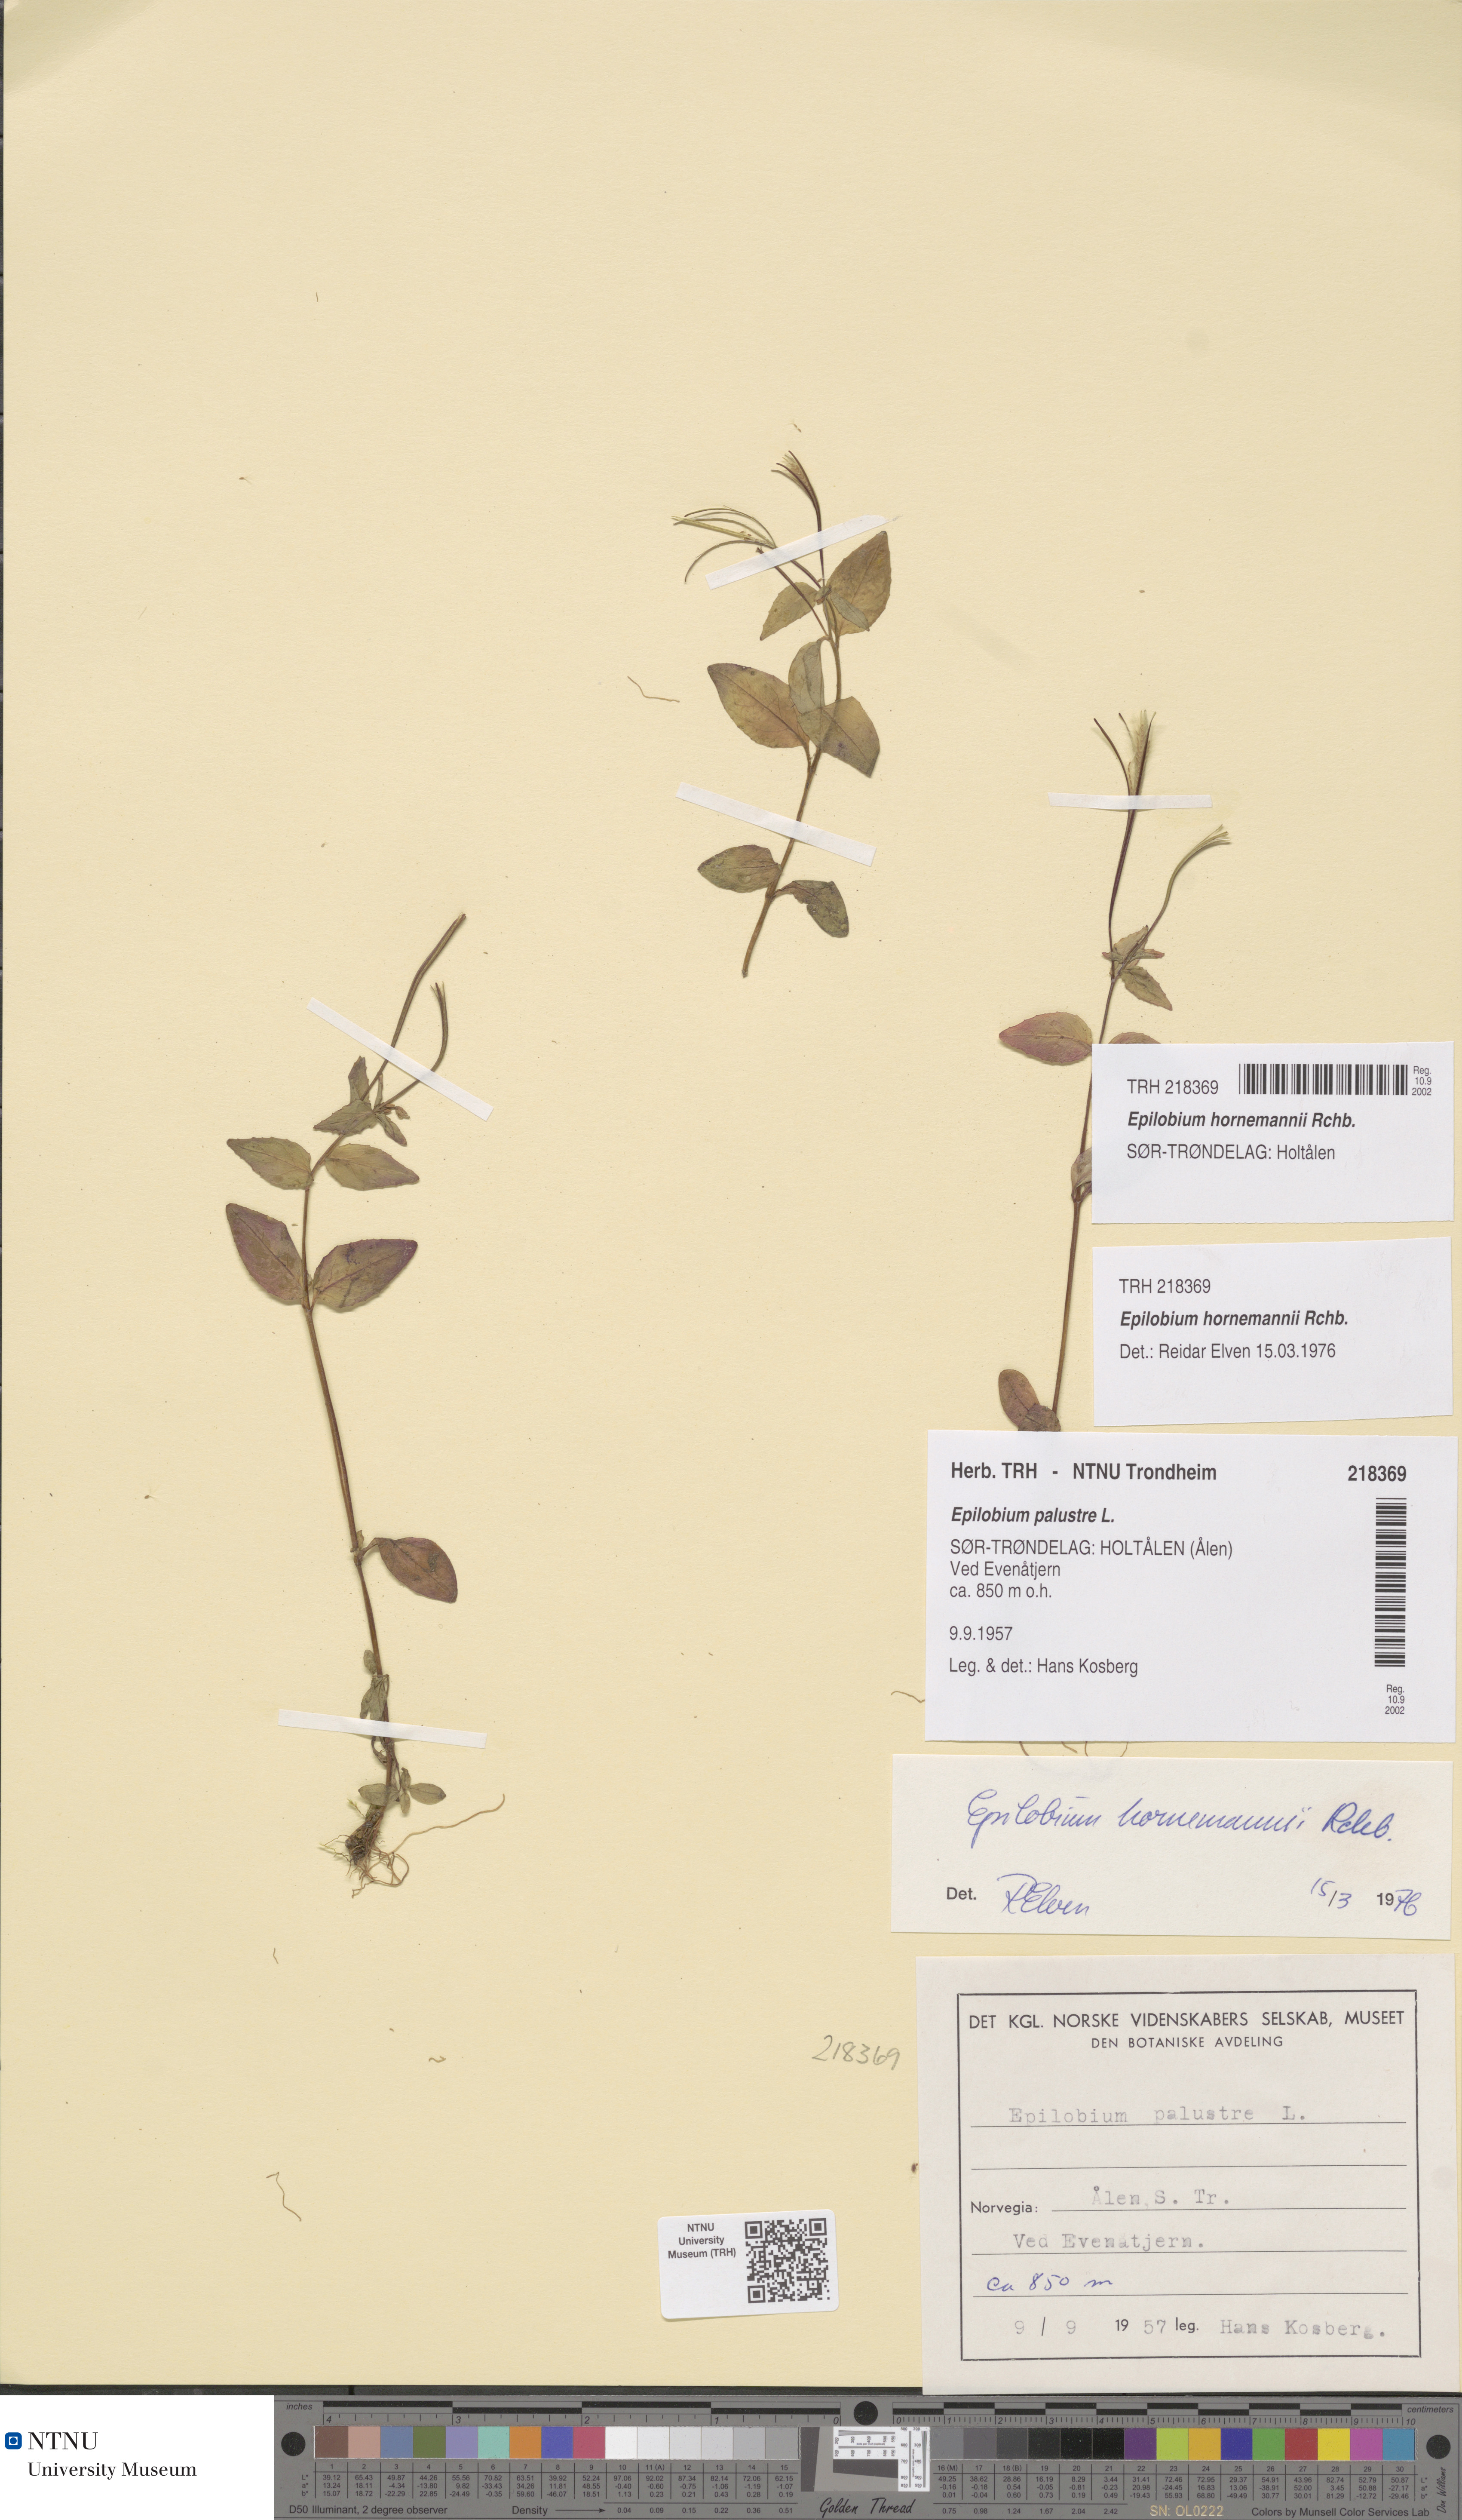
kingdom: Plantae
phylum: Tracheophyta
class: Magnoliopsida
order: Myrtales
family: Onagraceae
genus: Epilobium
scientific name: Epilobium hornemannii
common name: Hornemann's willowherb
